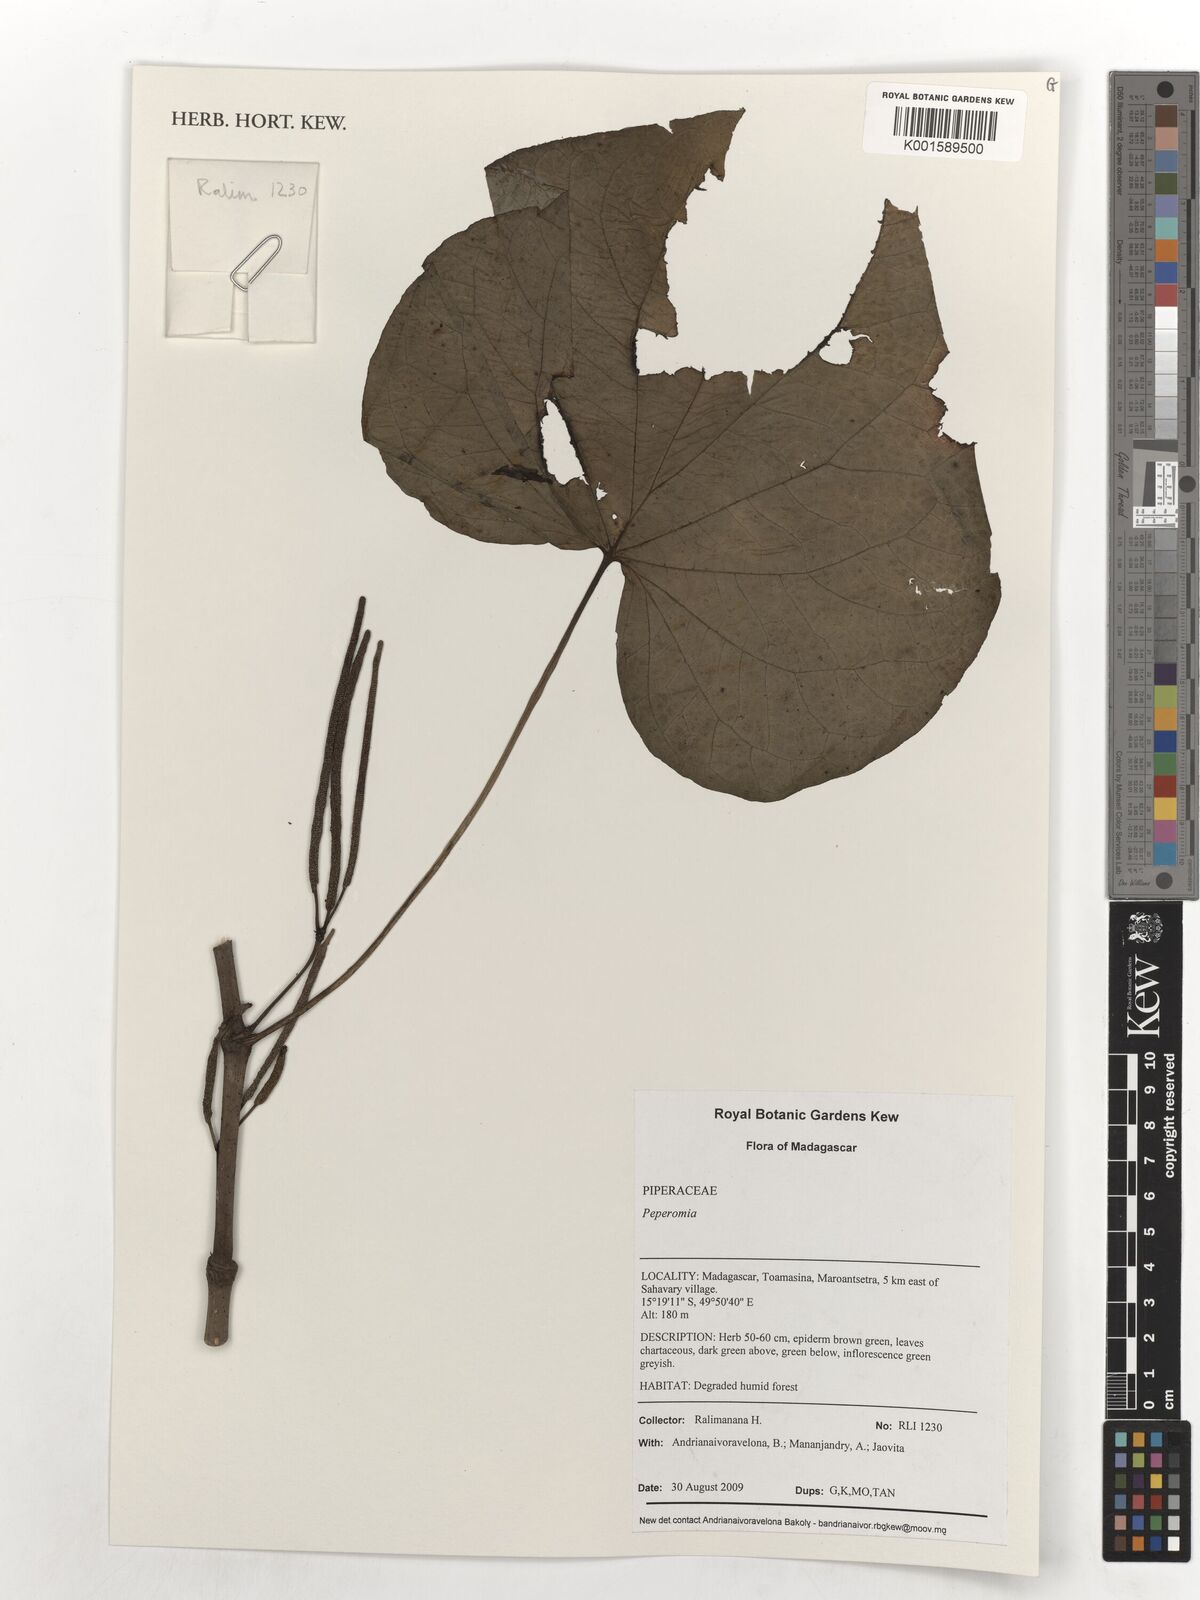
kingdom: Plantae
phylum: Tracheophyta
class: Magnoliopsida
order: Piperales
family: Piperaceae
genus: Peperomia
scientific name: Peperomia
